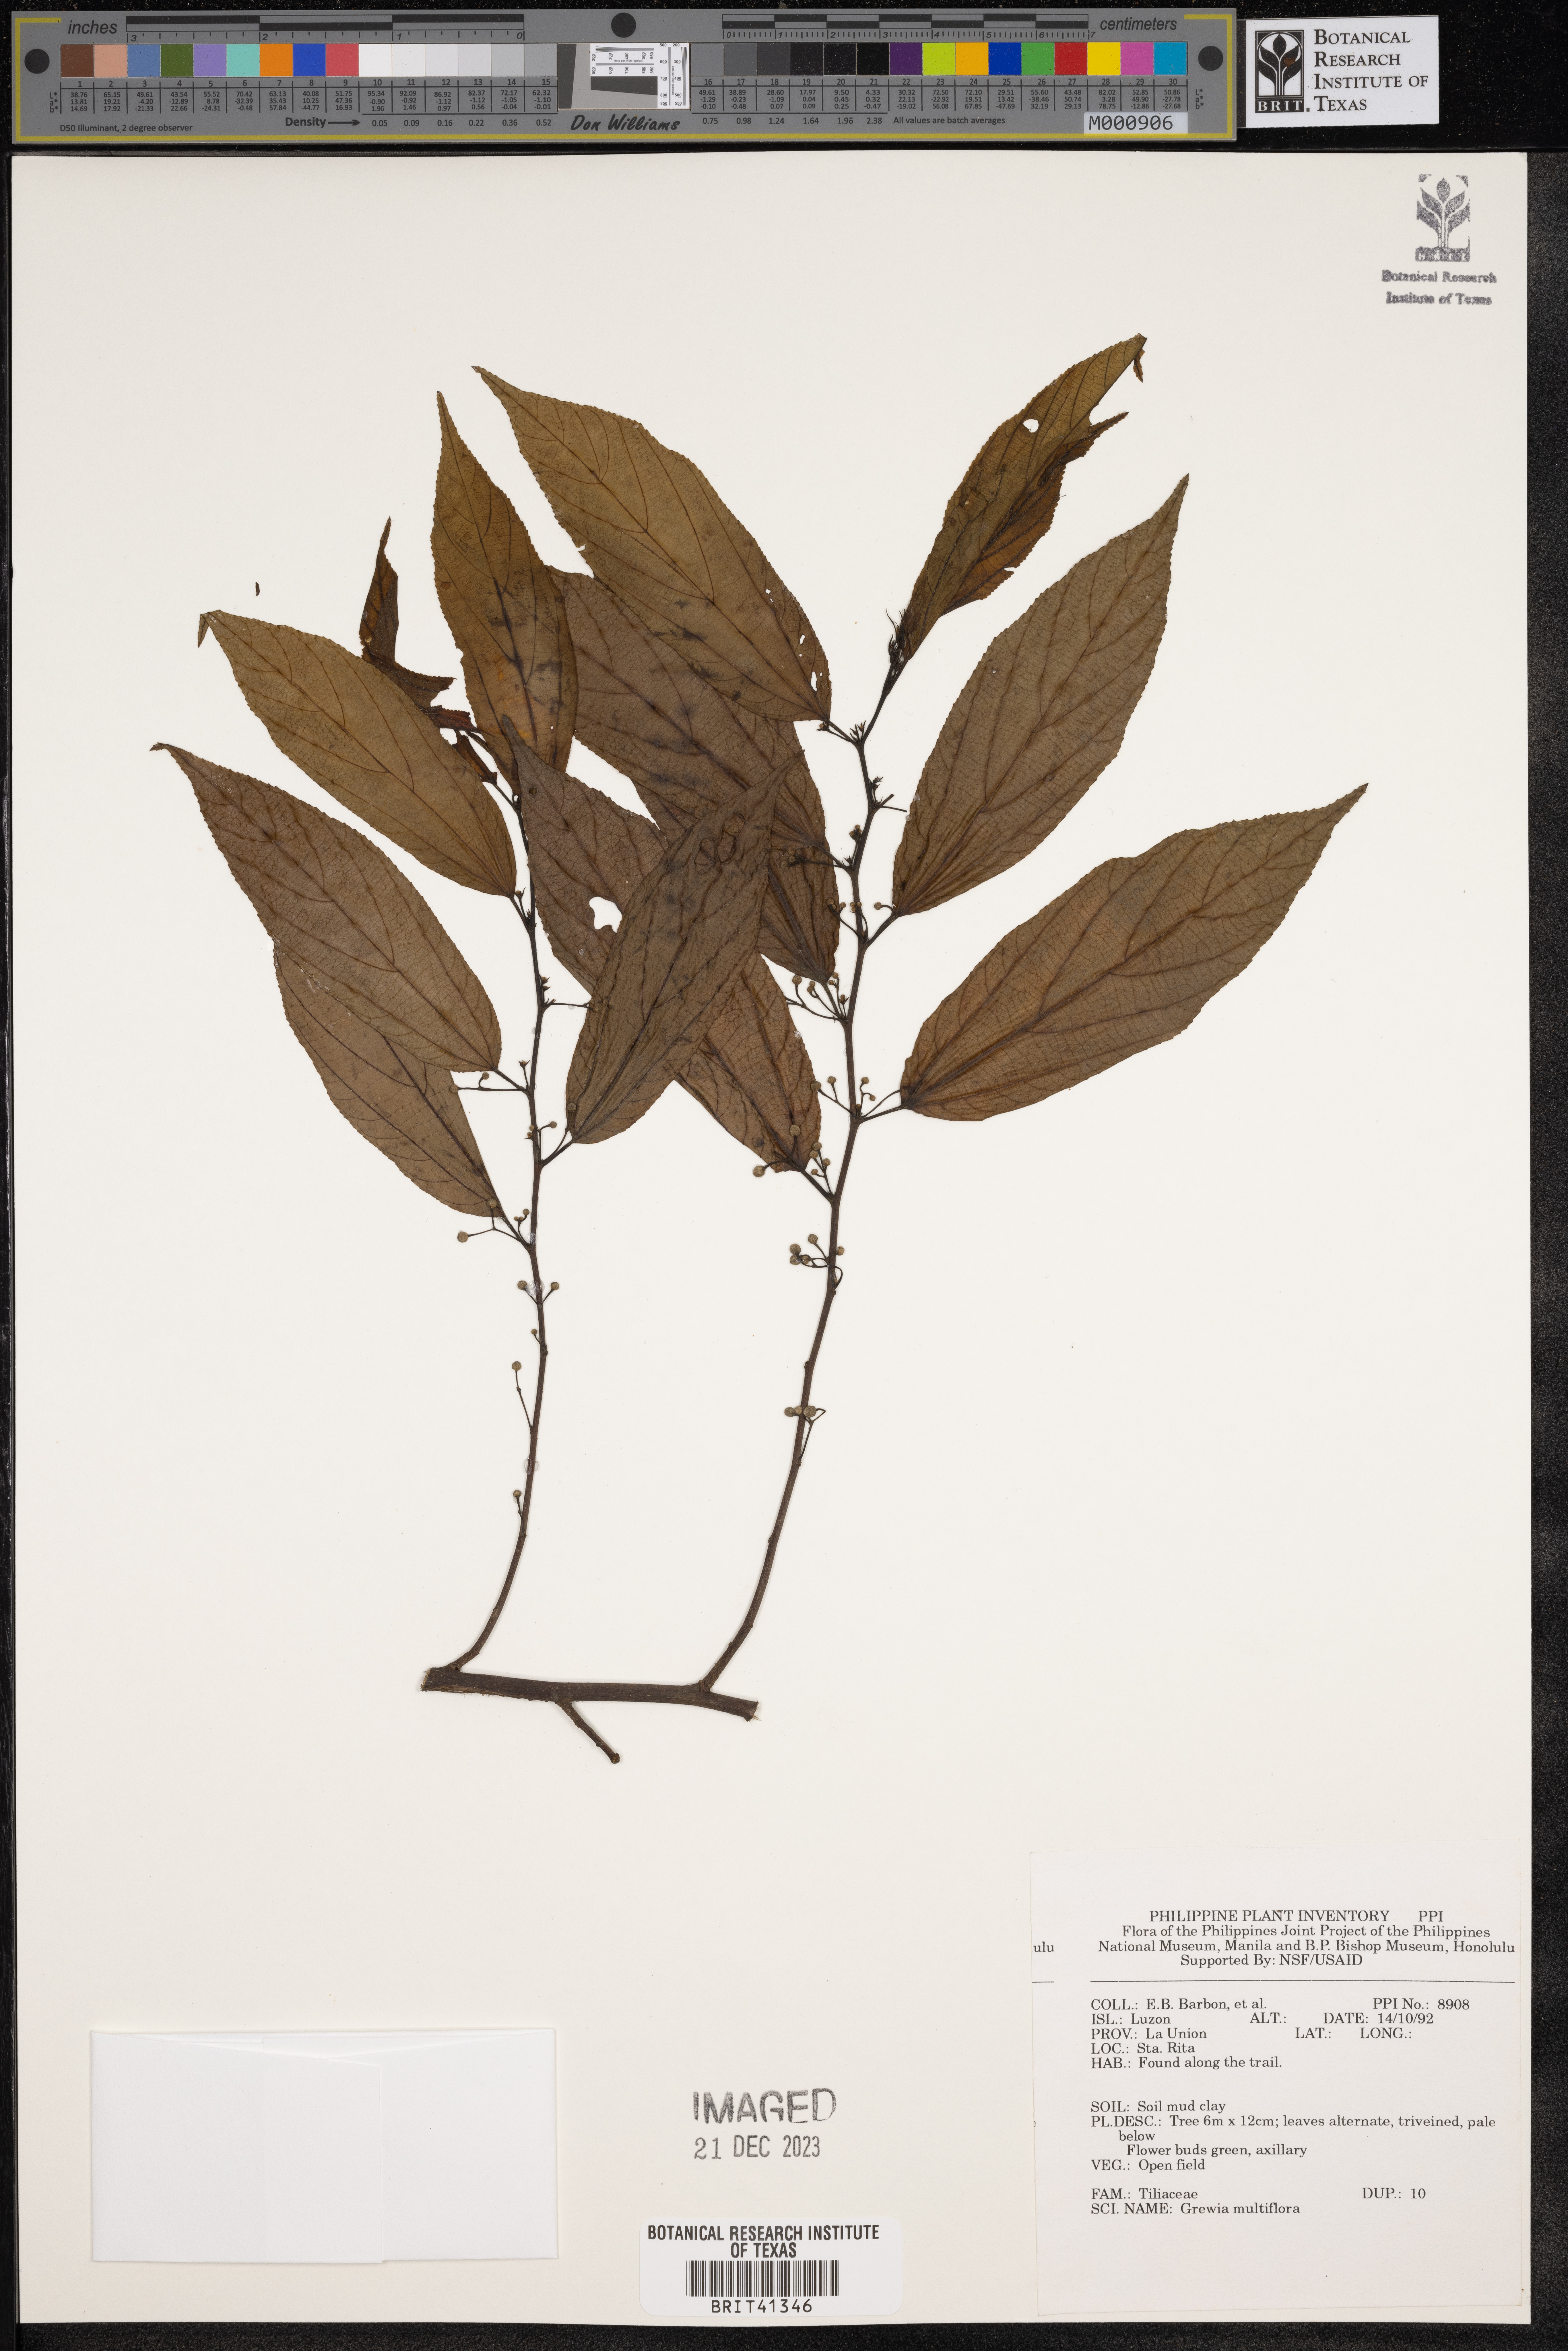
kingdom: Plantae
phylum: Tracheophyta
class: Magnoliopsida
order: Malvales
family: Malvaceae
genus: Grewia
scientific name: Grewia multiflora
